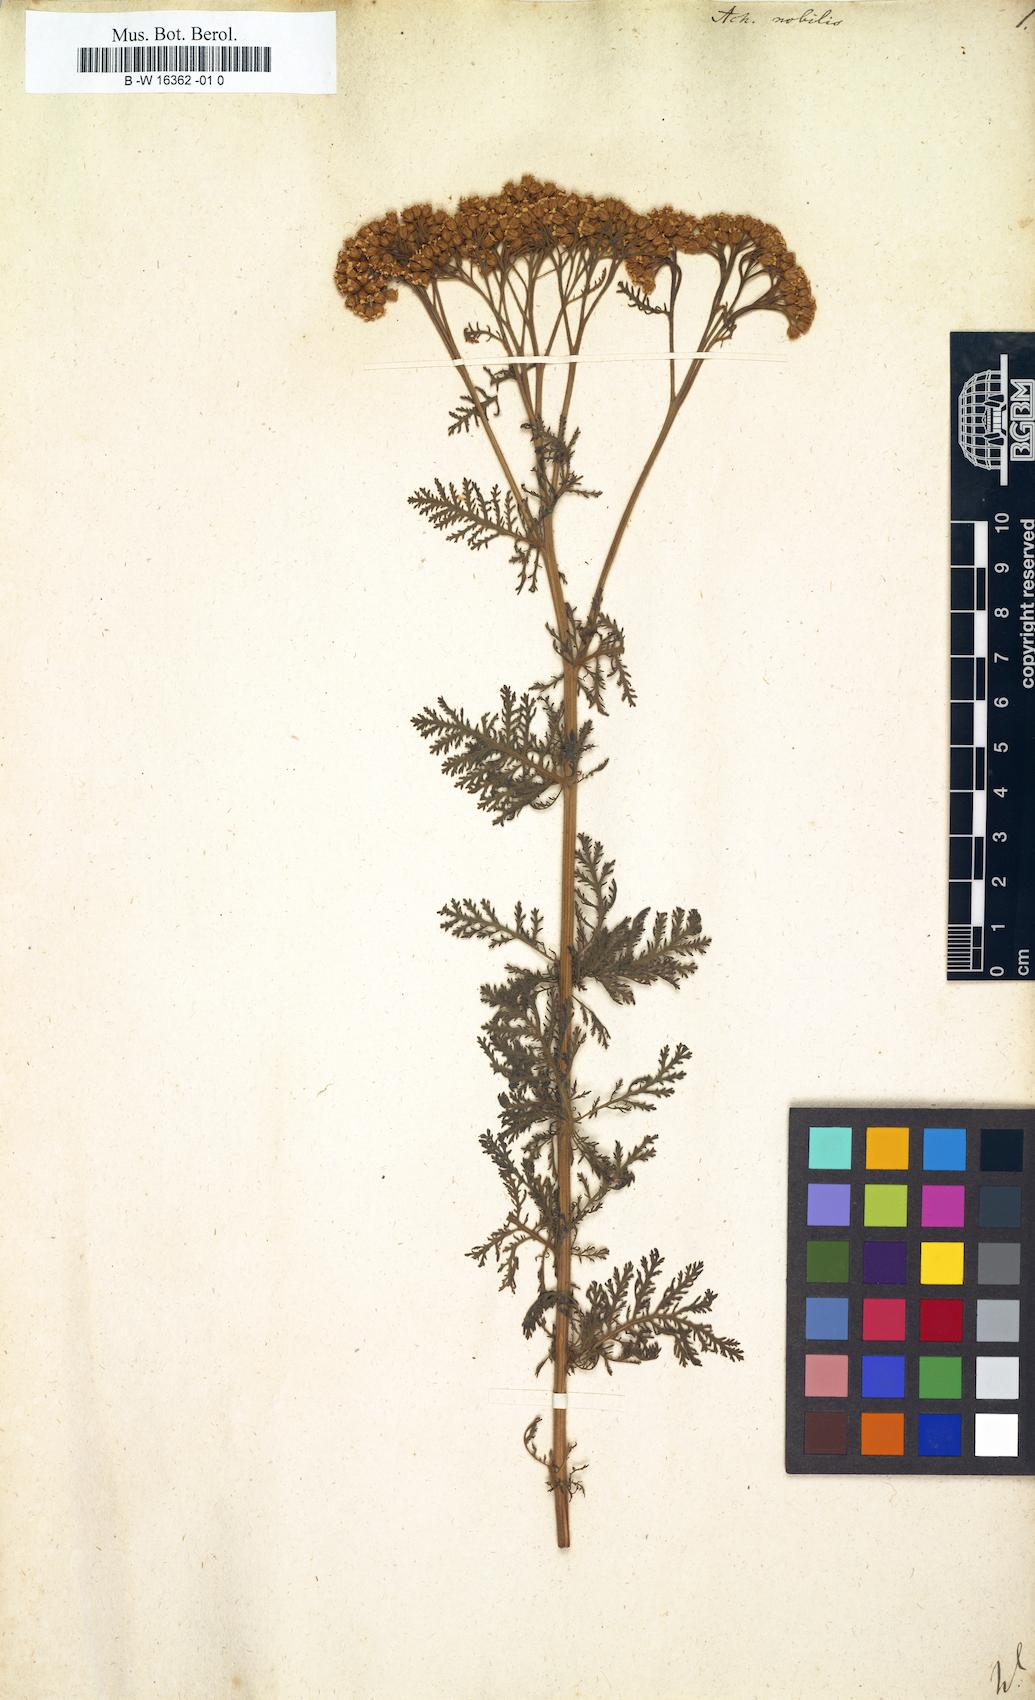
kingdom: Plantae
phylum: Tracheophyta
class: Magnoliopsida
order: Asterales
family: Asteraceae
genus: Achillea
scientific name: Achillea nobilis
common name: Noble yarrow
